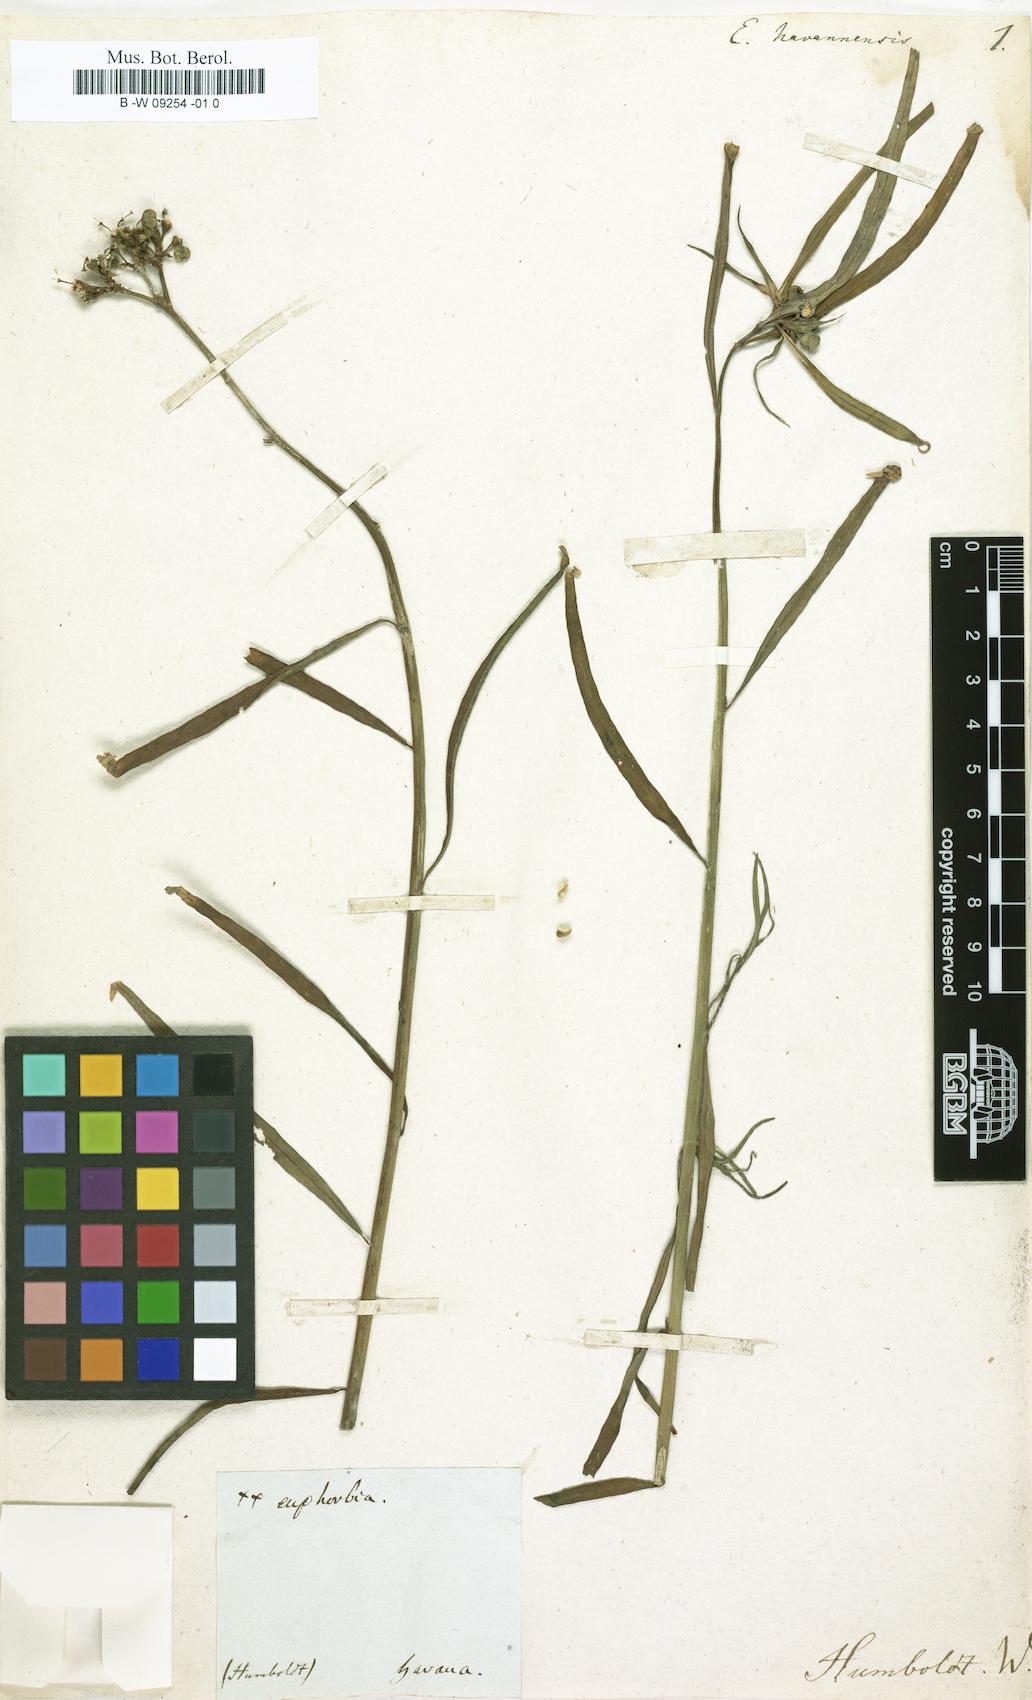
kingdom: Plantae
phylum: Tracheophyta
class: Magnoliopsida
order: Malpighiales
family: Euphorbiaceae
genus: Euphorbia
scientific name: Euphorbia heterophylla
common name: Mexican fireplant
